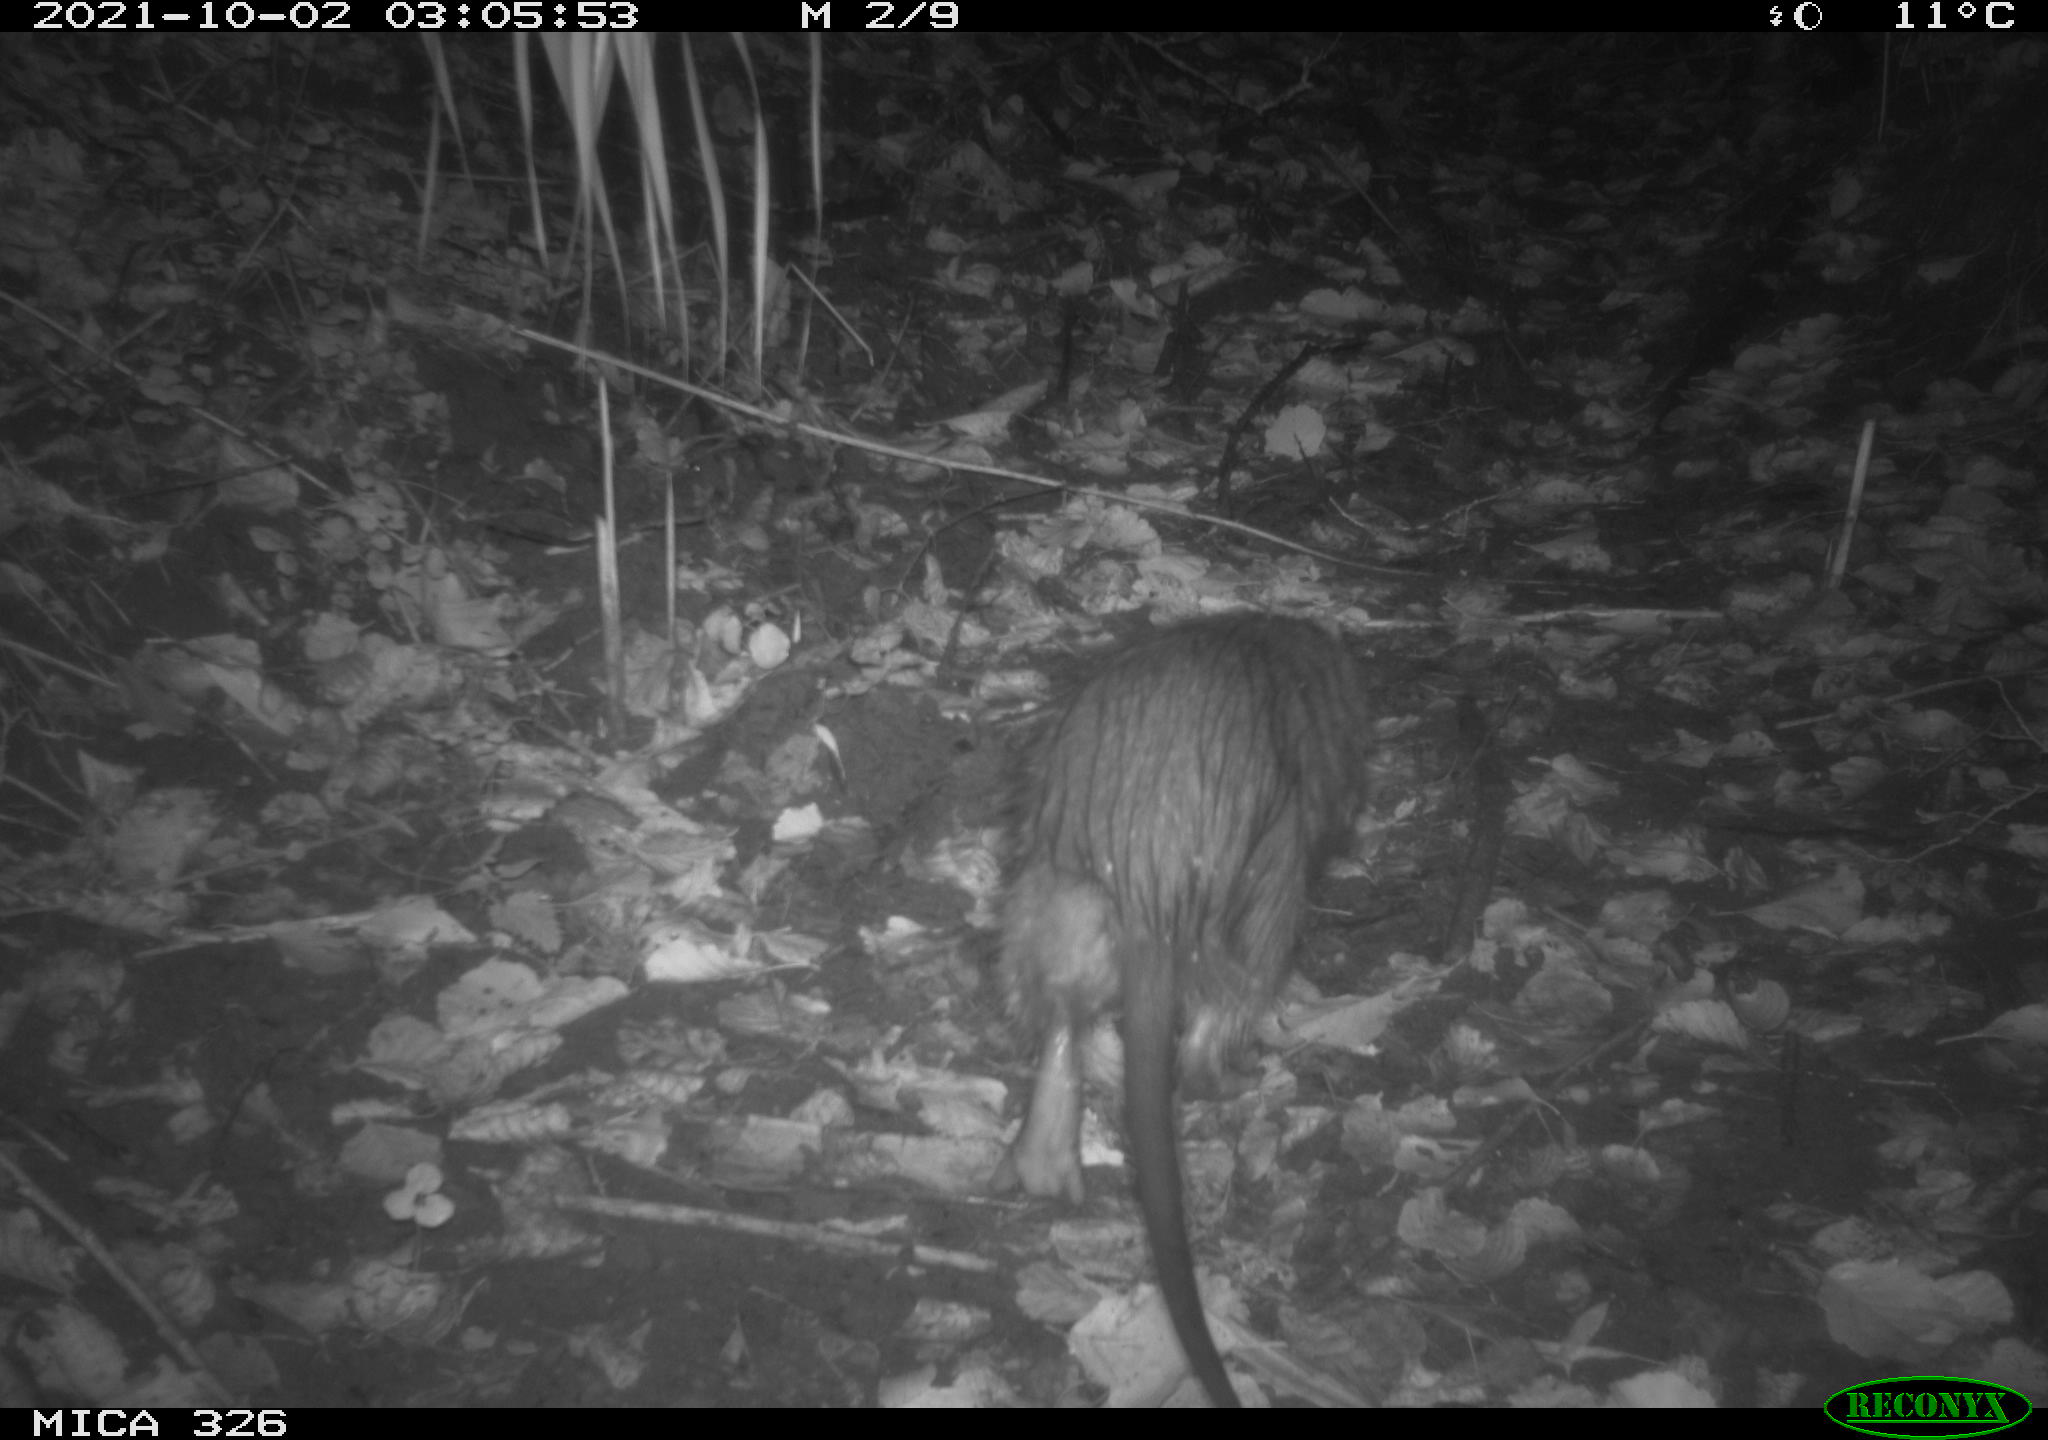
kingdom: Animalia
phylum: Chordata
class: Mammalia
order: Rodentia
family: Myocastoridae
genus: Myocastor
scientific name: Myocastor coypus
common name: Coypu
